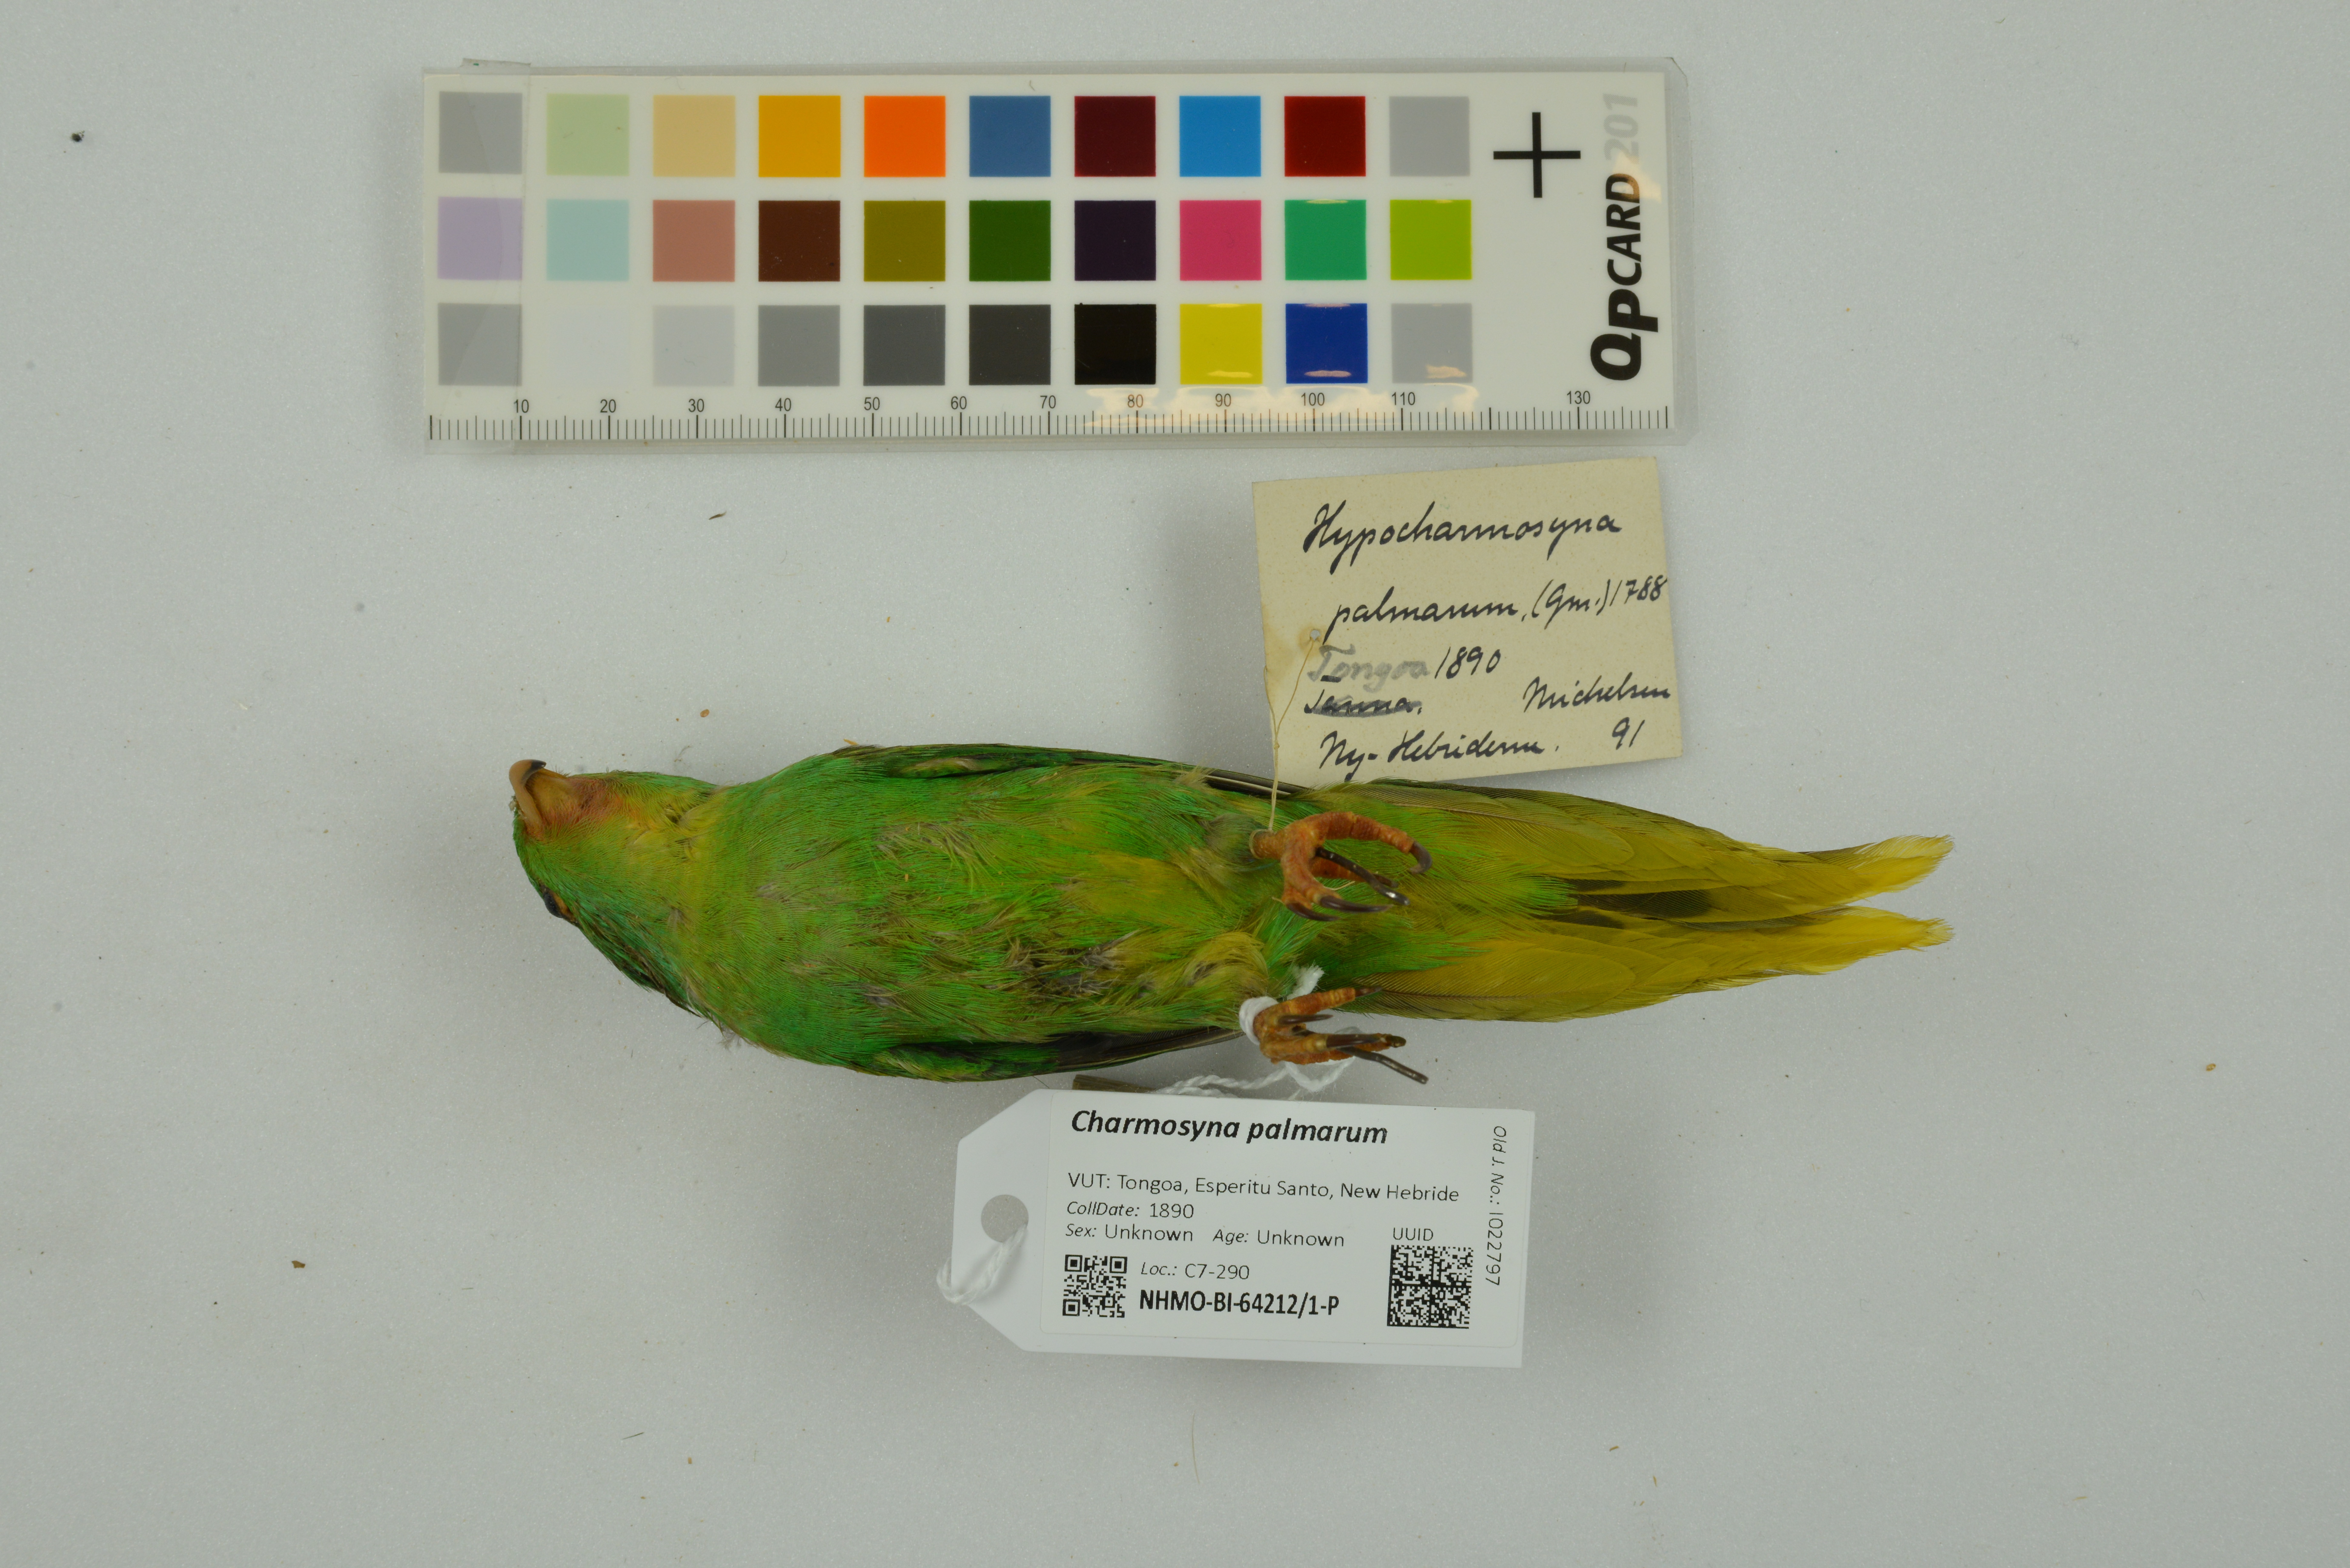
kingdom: Animalia
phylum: Chordata
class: Aves
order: Psittaciformes
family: Psittacidae
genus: Charmosyna
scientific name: Charmosyna palmarum
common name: Palm lorikeet
